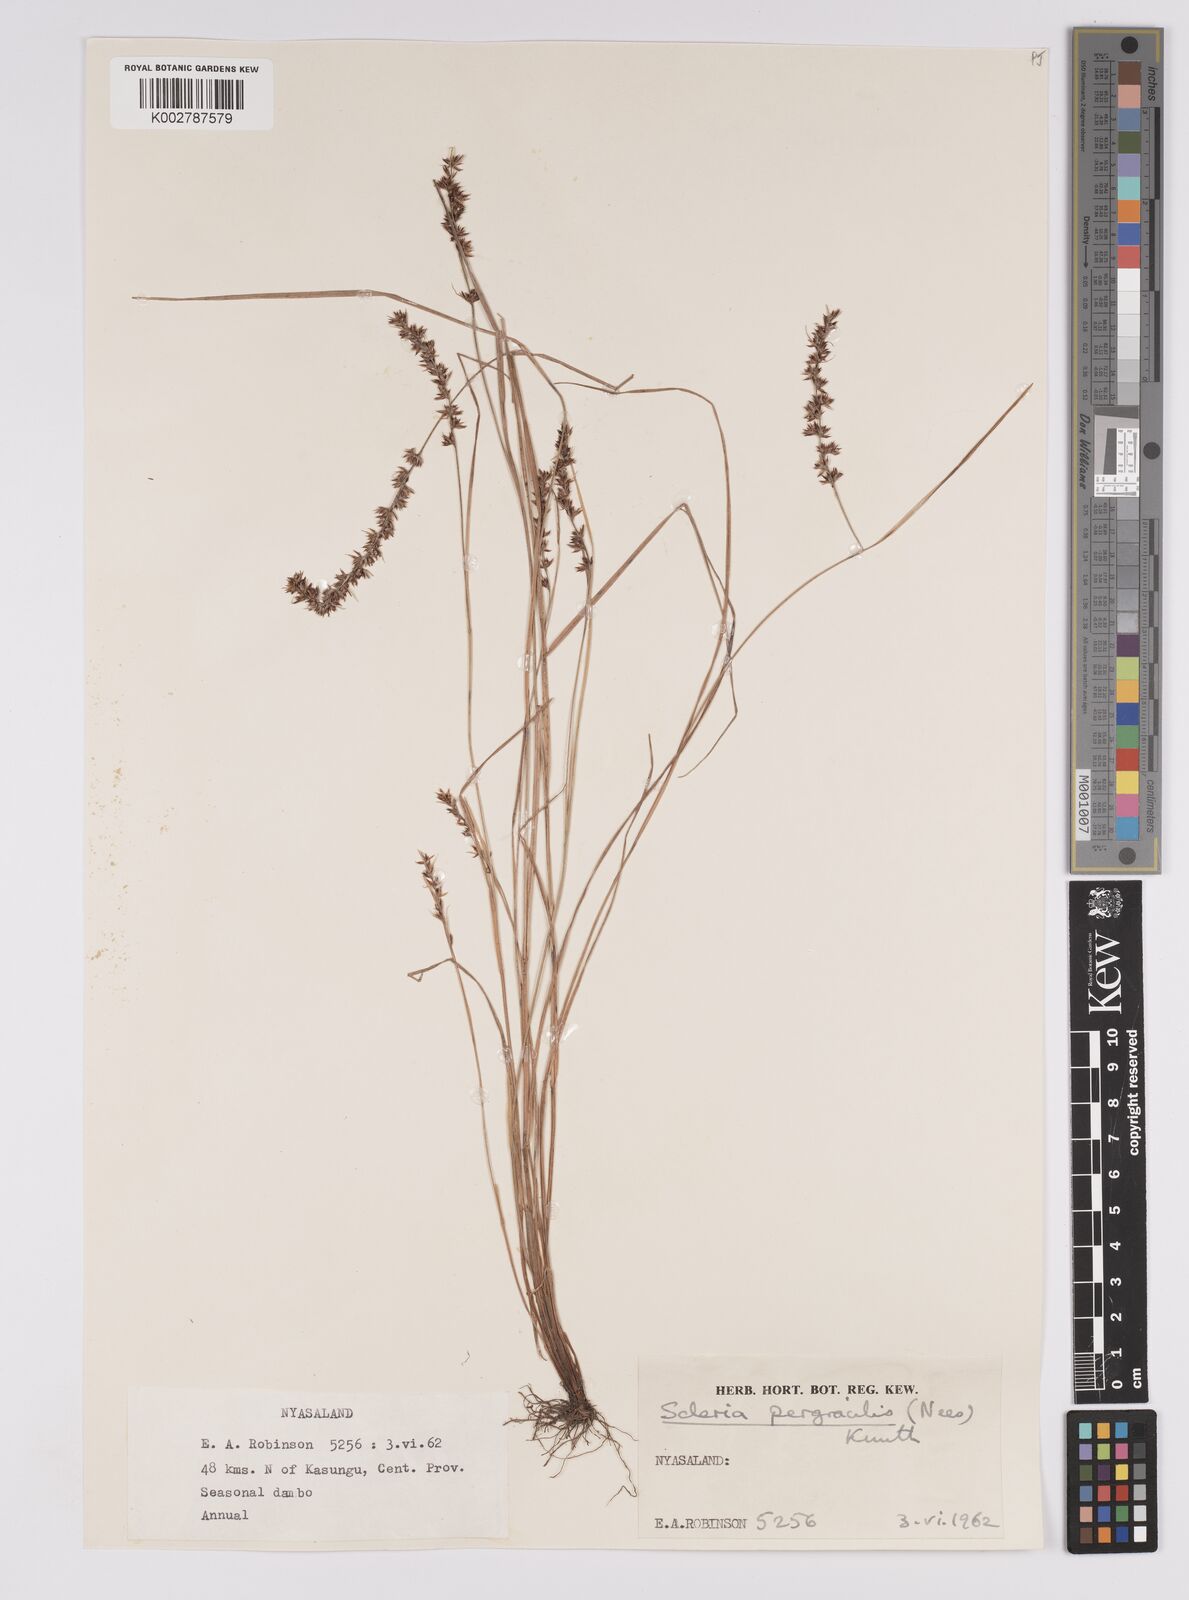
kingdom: Plantae
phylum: Tracheophyta
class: Liliopsida
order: Poales
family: Cyperaceae
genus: Scleria
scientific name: Scleria pergracilis
